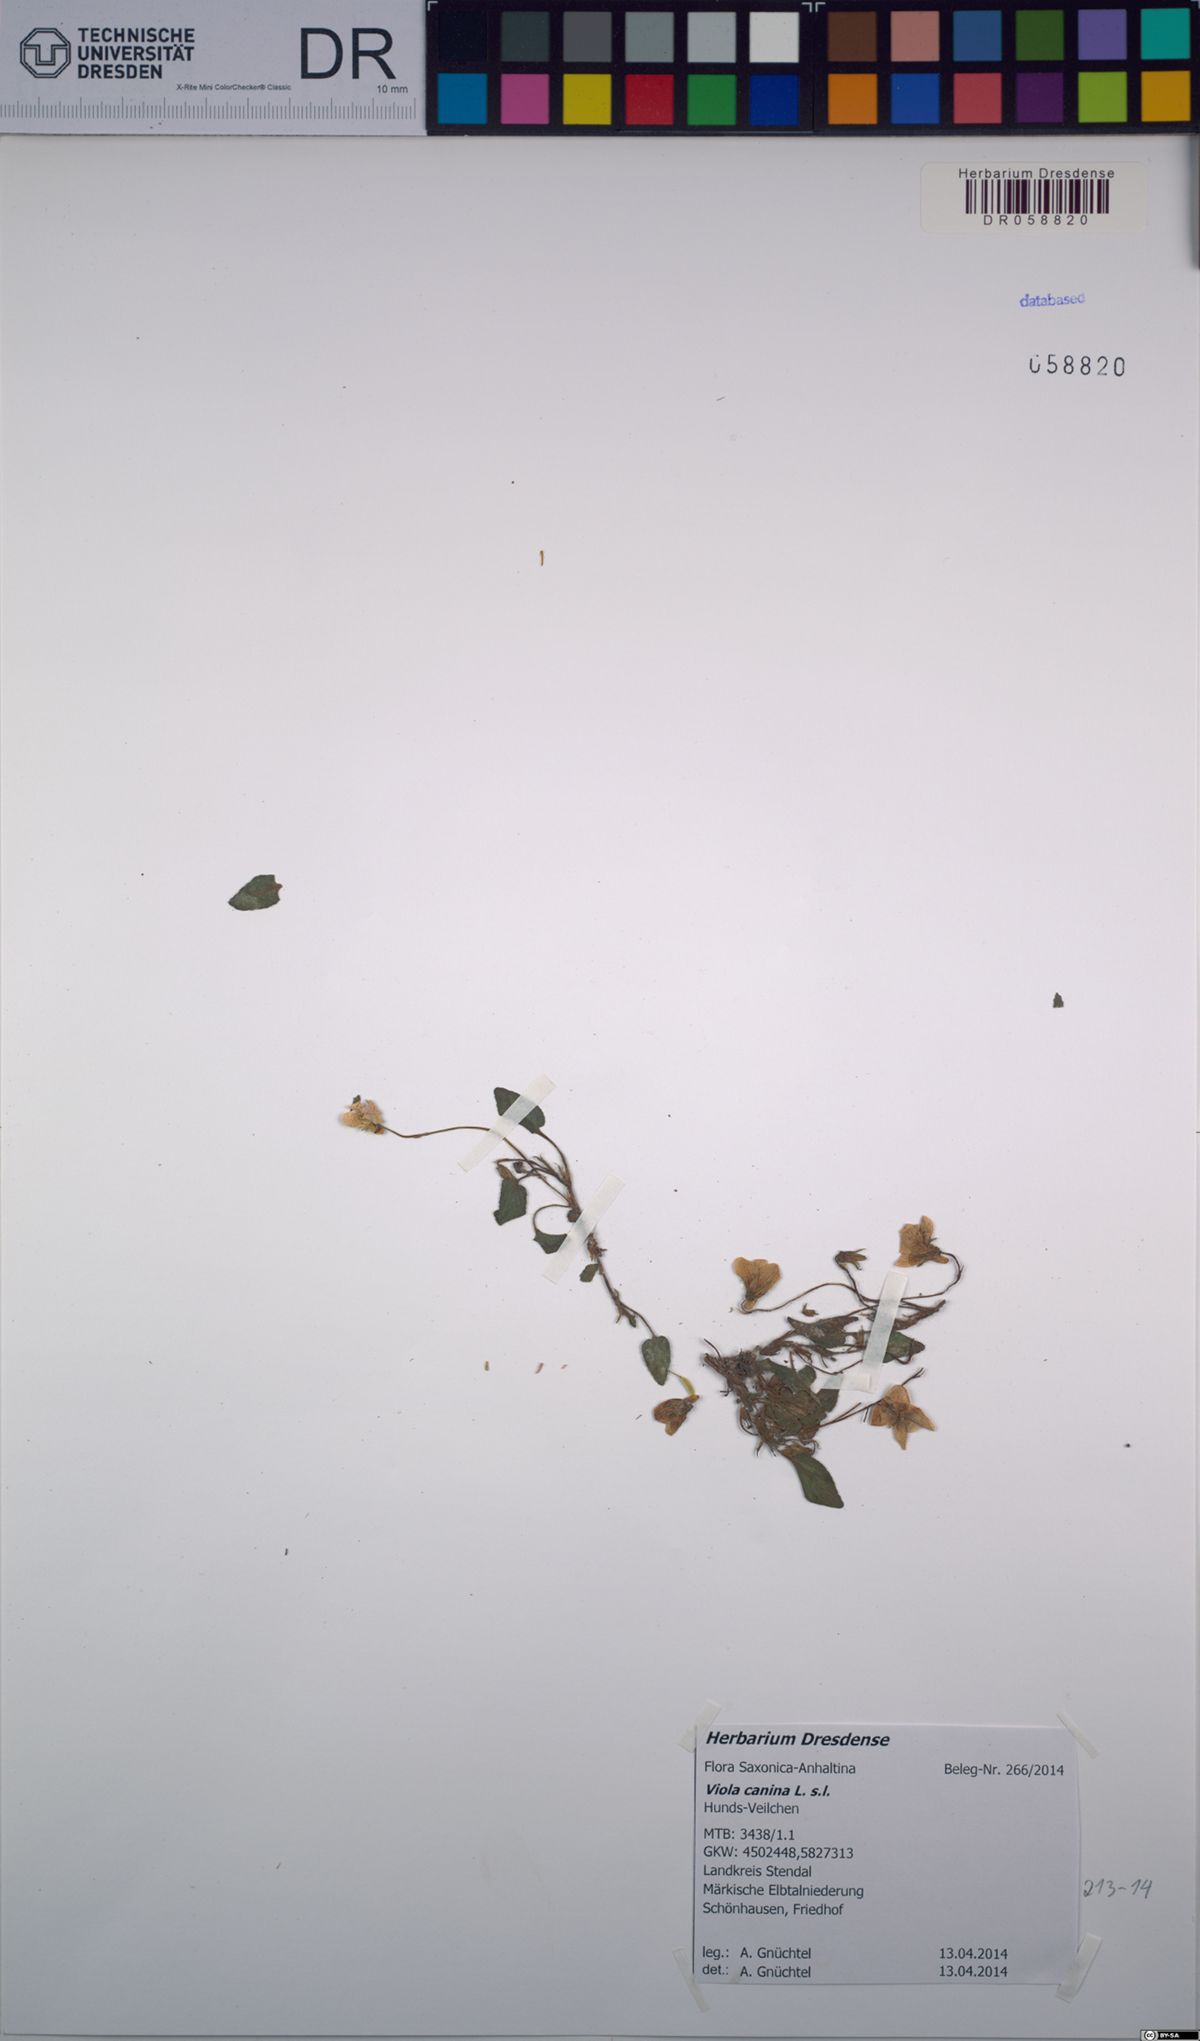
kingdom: Plantae
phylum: Tracheophyta
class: Magnoliopsida
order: Malpighiales
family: Violaceae
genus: Viola
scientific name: Viola canina
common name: Heath dog-violet
